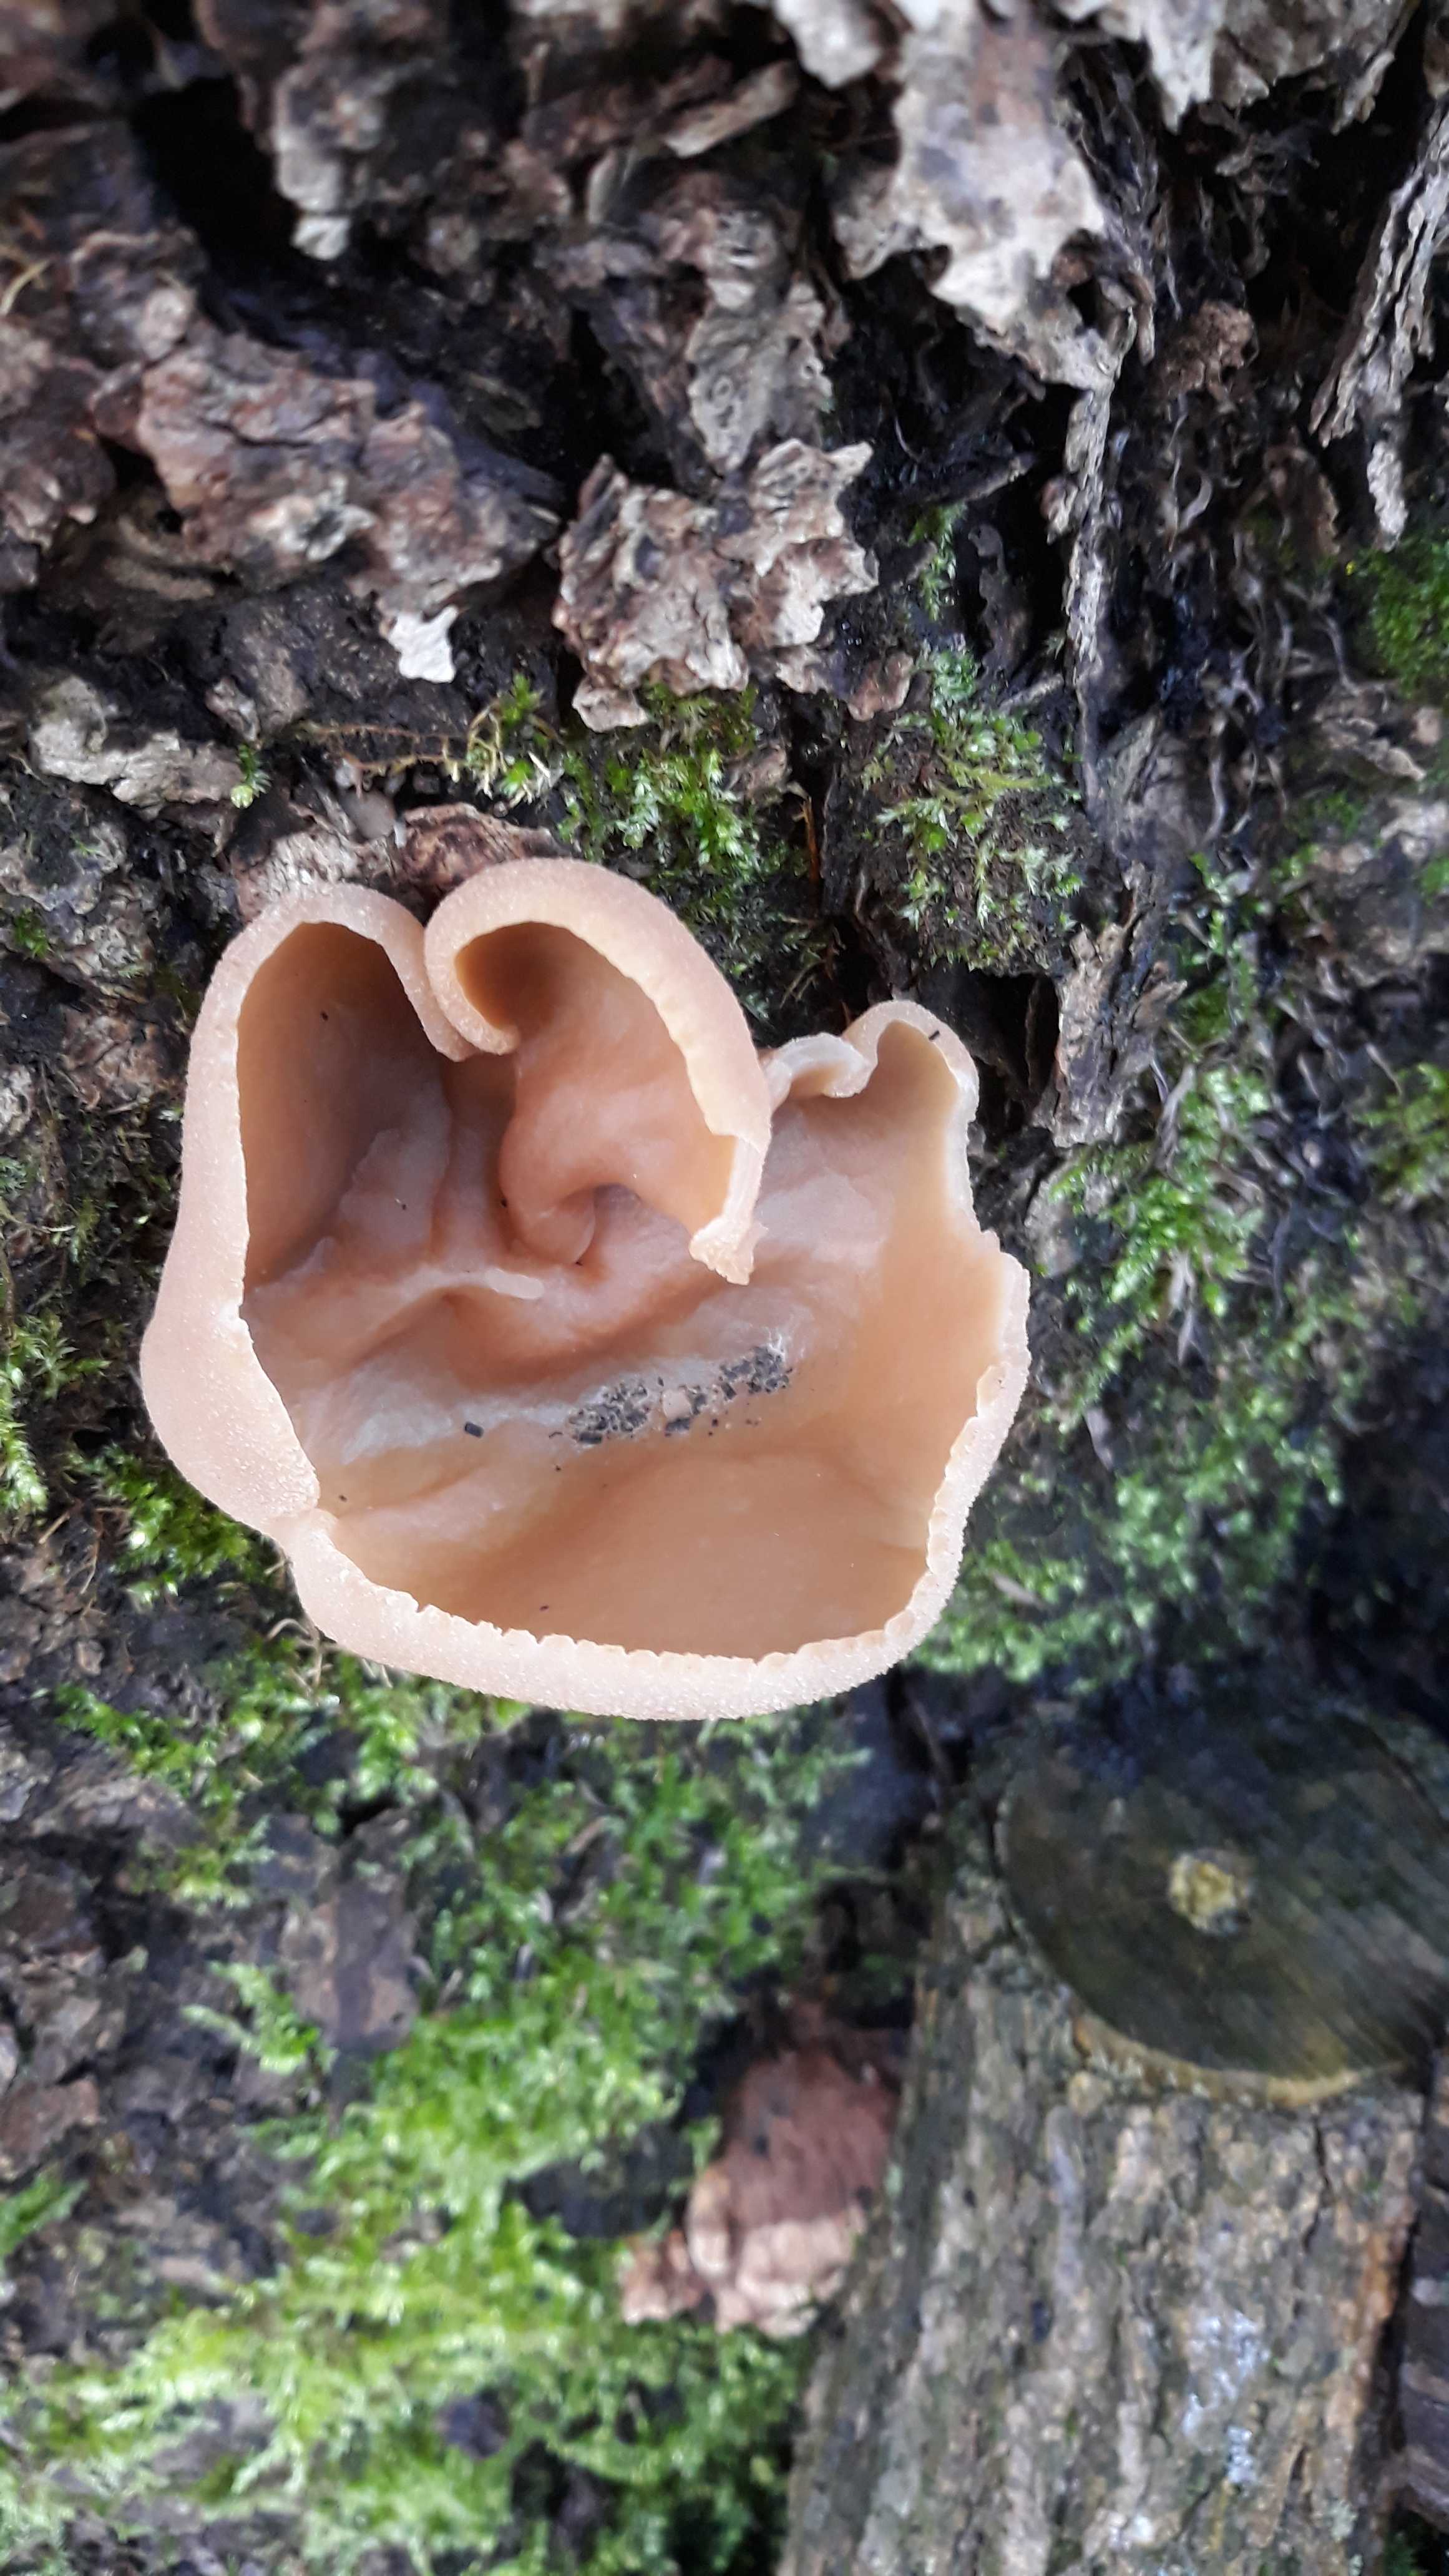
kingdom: Fungi
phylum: Ascomycota
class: Pezizomycetes
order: Pezizales
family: Pezizaceae
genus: Peziza
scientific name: Peziza varia
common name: Ved-bægersvamp
